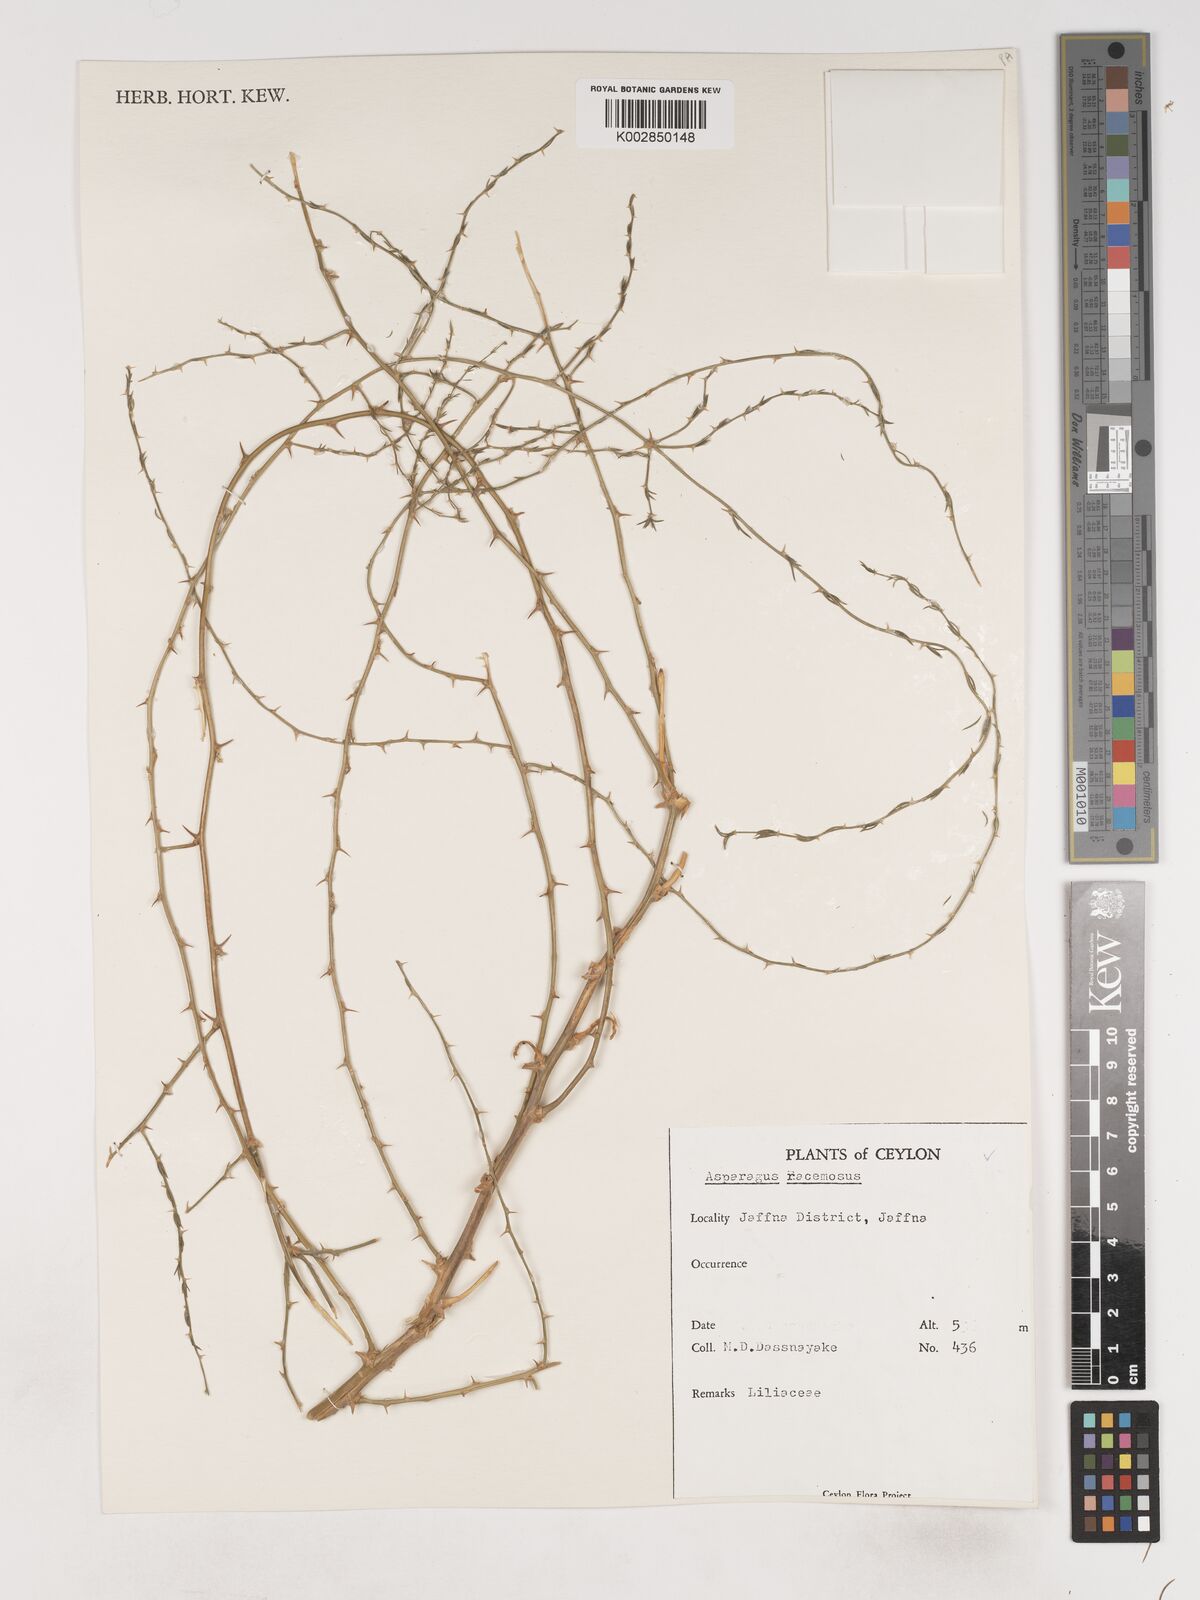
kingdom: Plantae
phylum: Tracheophyta
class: Liliopsida
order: Asparagales
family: Asparagaceae
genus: Asparagus
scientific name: Asparagus racemosus
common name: Asparagus-fern
